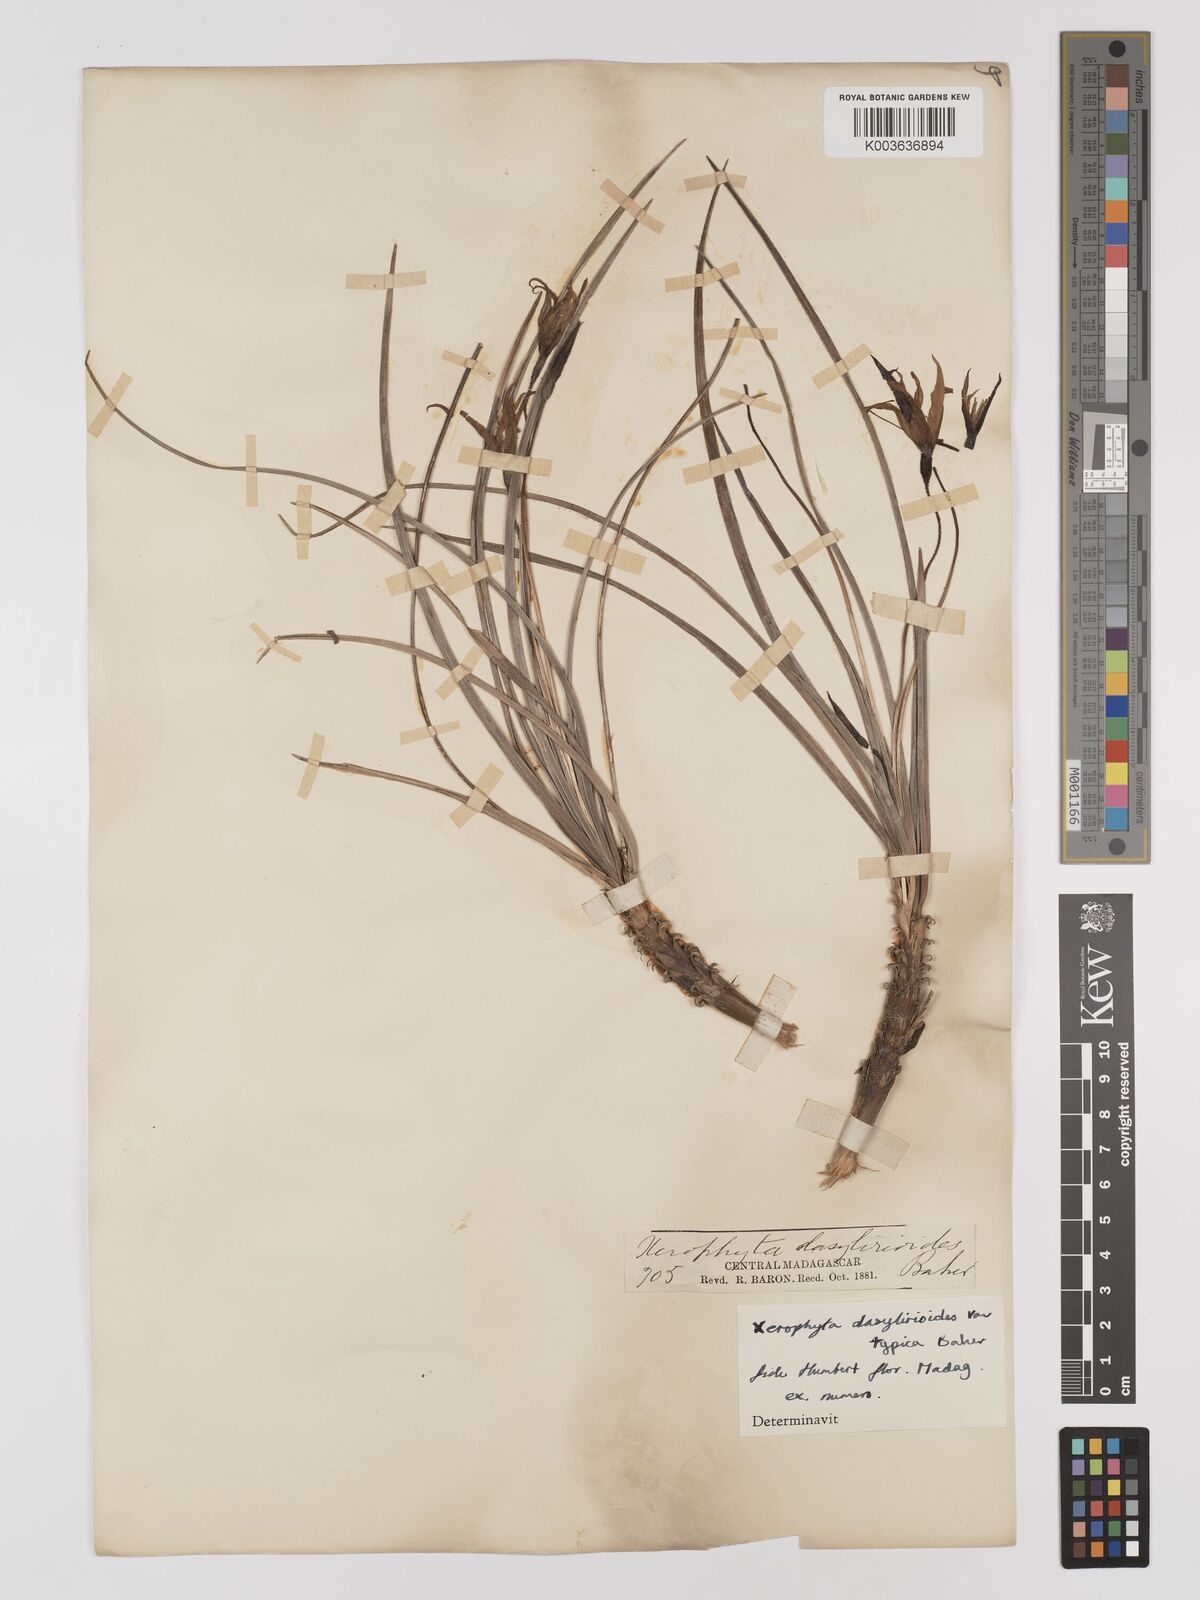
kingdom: Plantae
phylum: Tracheophyta
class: Liliopsida
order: Pandanales
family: Velloziaceae
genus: Xerophyta
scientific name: Xerophyta dasylirioides
